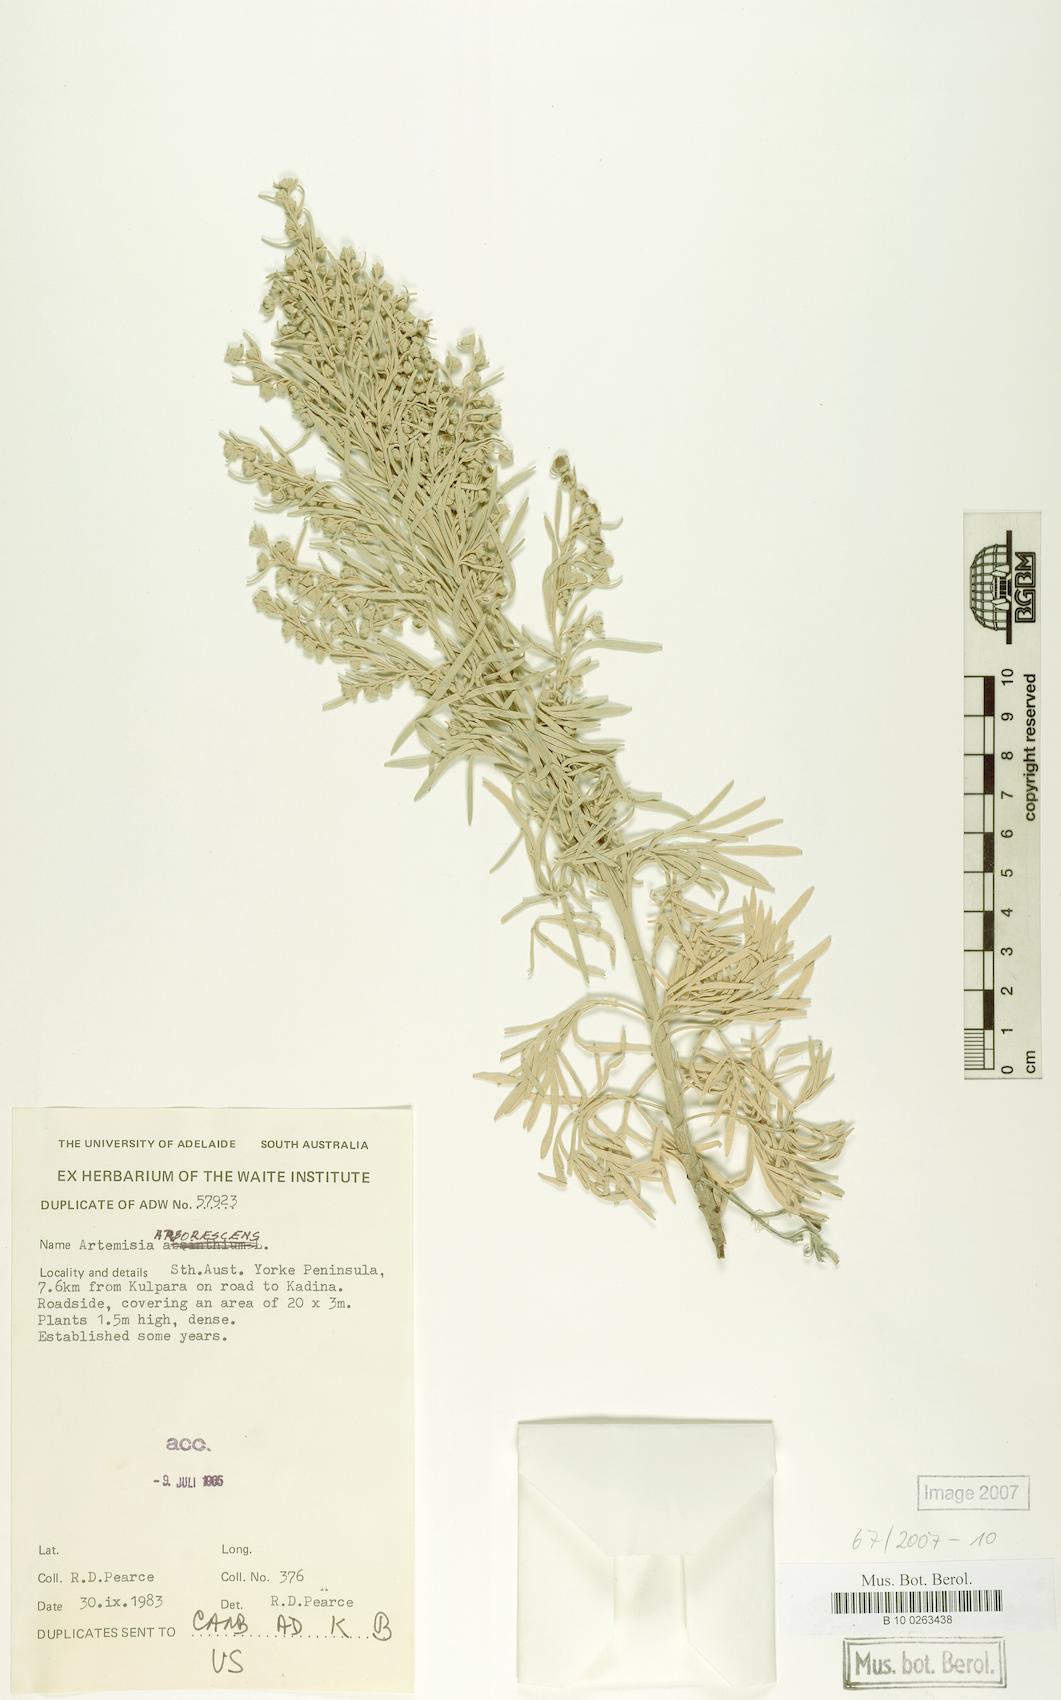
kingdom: Plantae
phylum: Tracheophyta
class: Magnoliopsida
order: Asterales
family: Asteraceae
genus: Artemisia
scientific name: Artemisia arborescens
